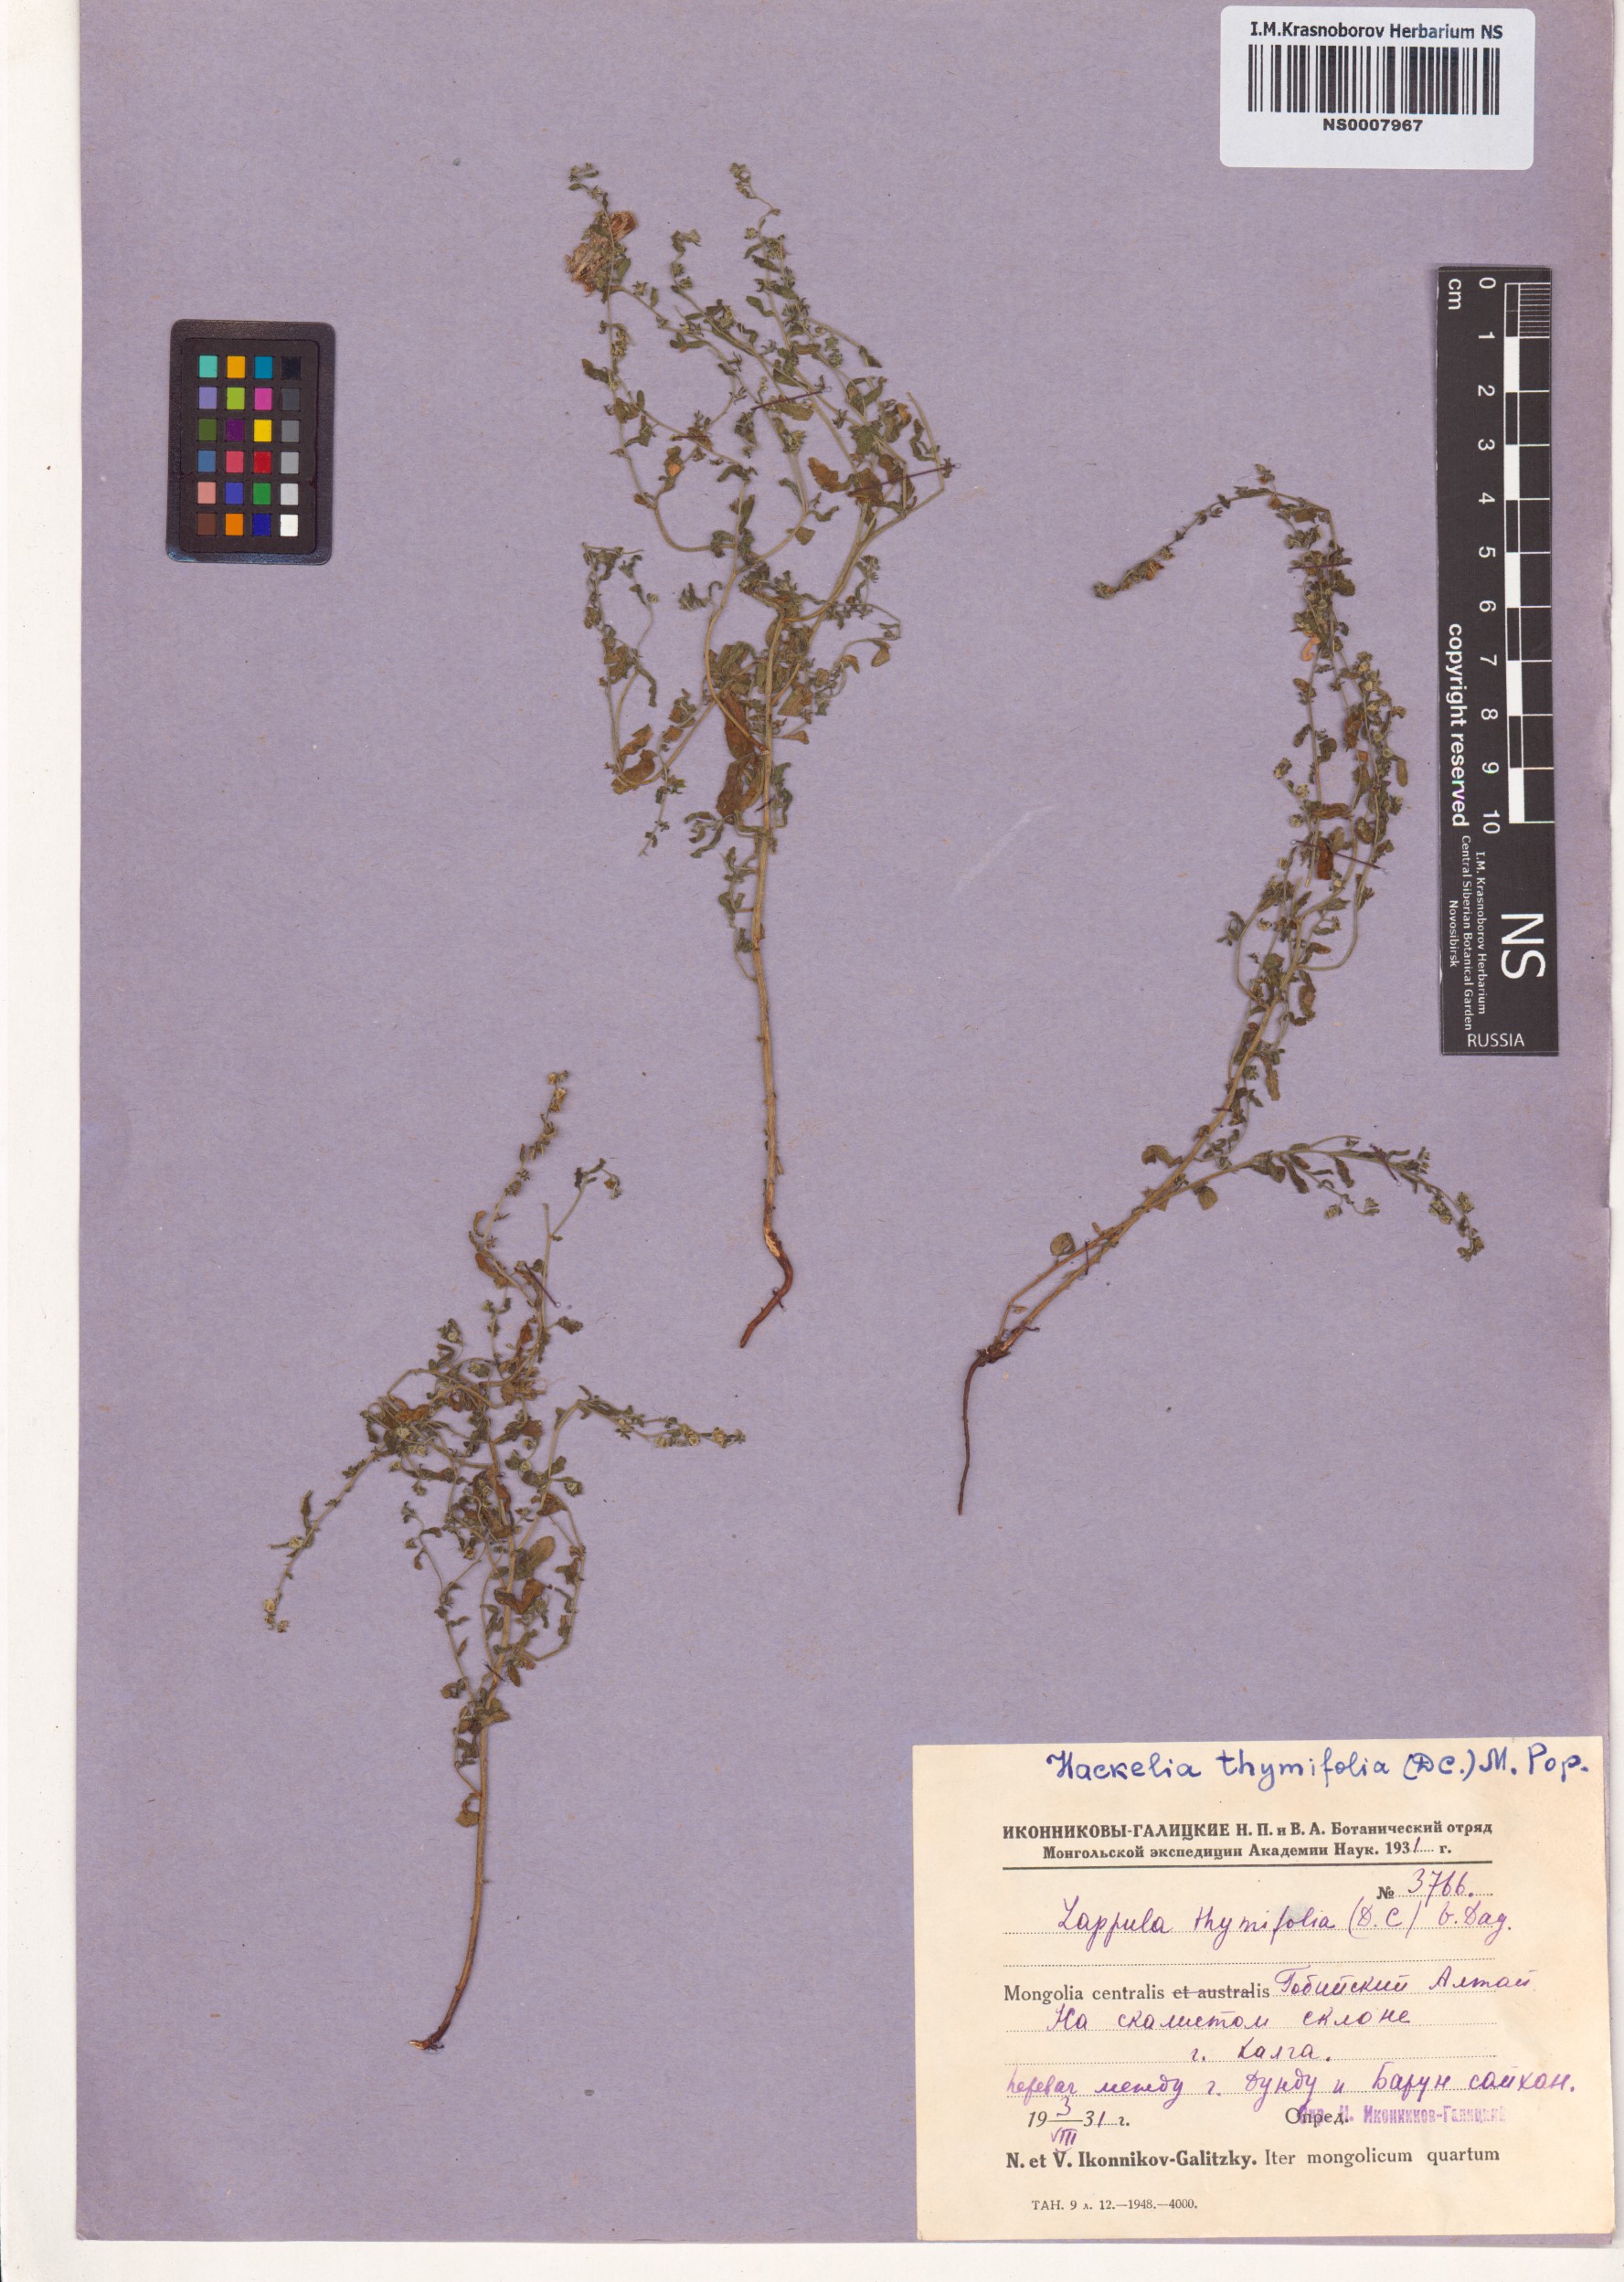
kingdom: Plantae
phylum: Tracheophyta
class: Magnoliopsida
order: Boraginales
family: Boraginaceae
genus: Hackelia
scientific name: Hackelia thymifolia
